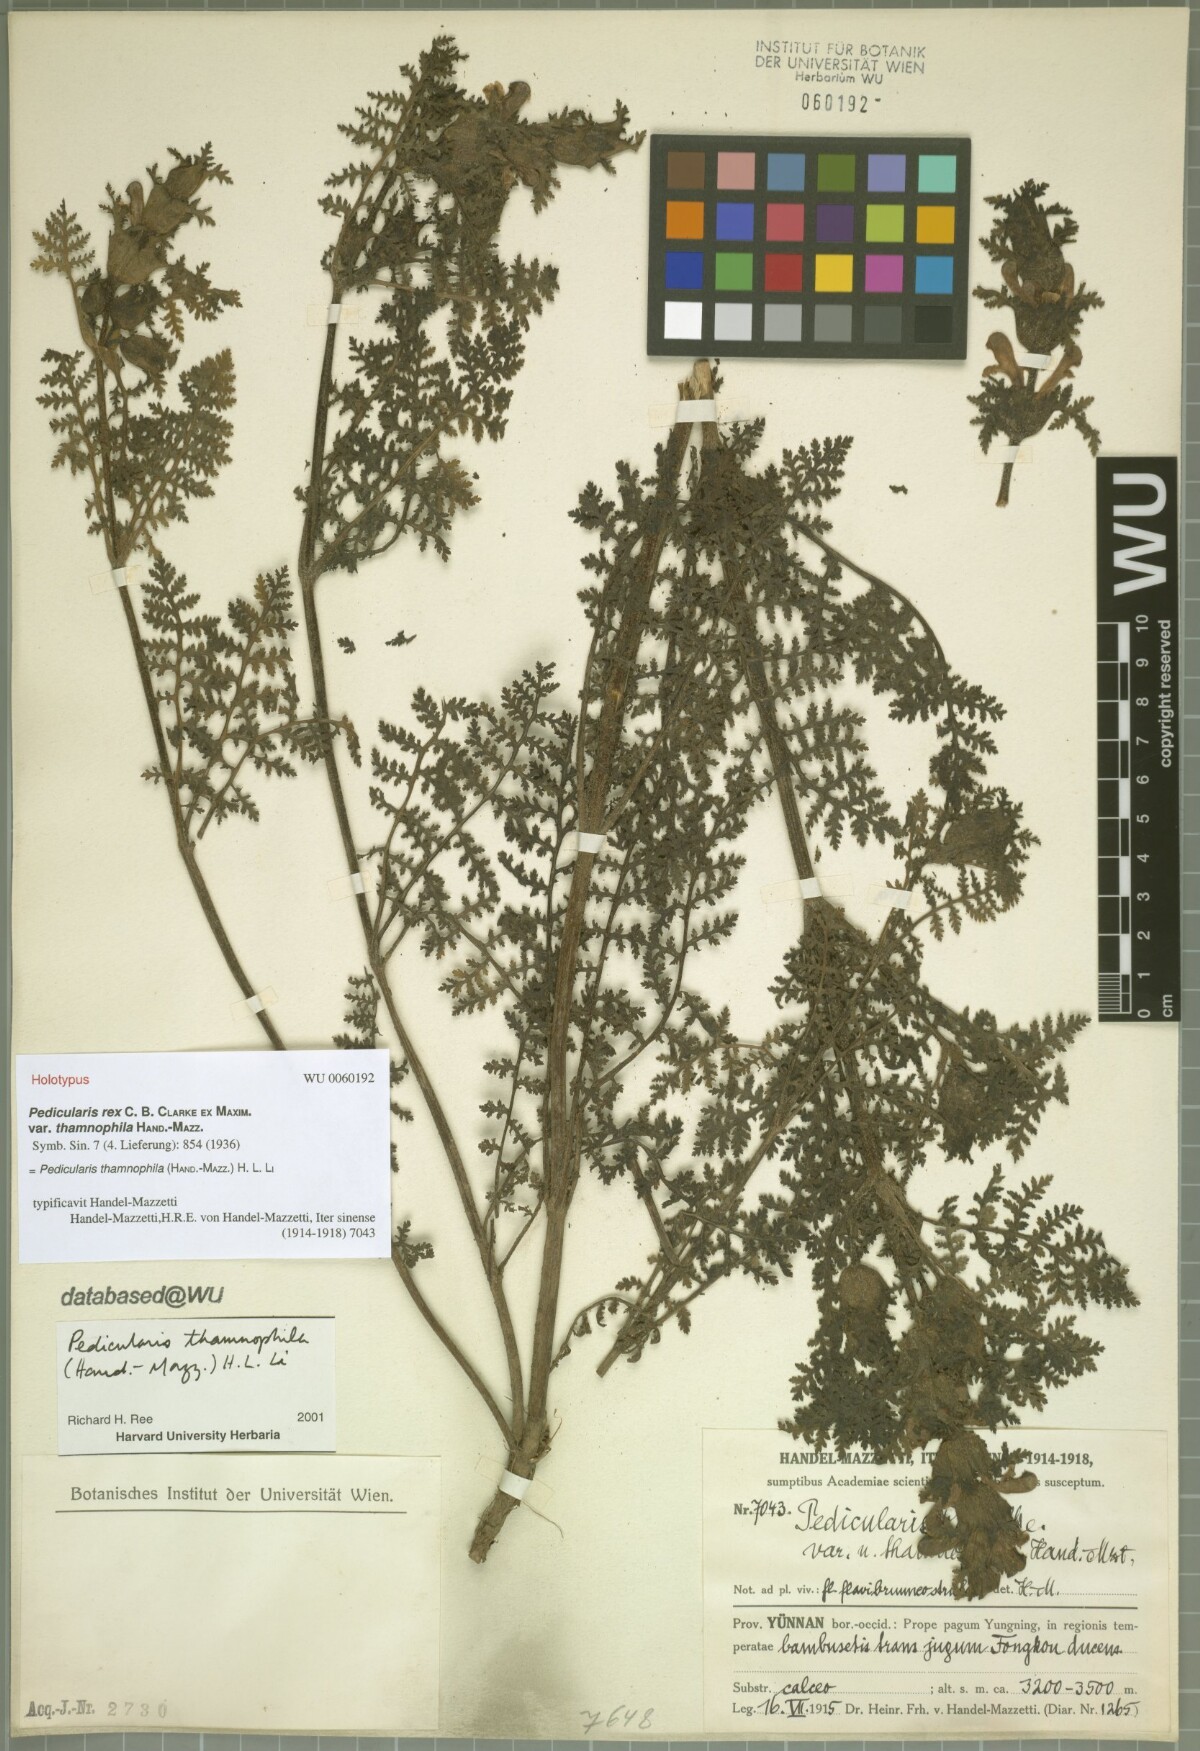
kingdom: Plantae
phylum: Tracheophyta
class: Magnoliopsida
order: Lamiales
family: Orobanchaceae
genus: Pedicularis
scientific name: Pedicularis thamnophila
